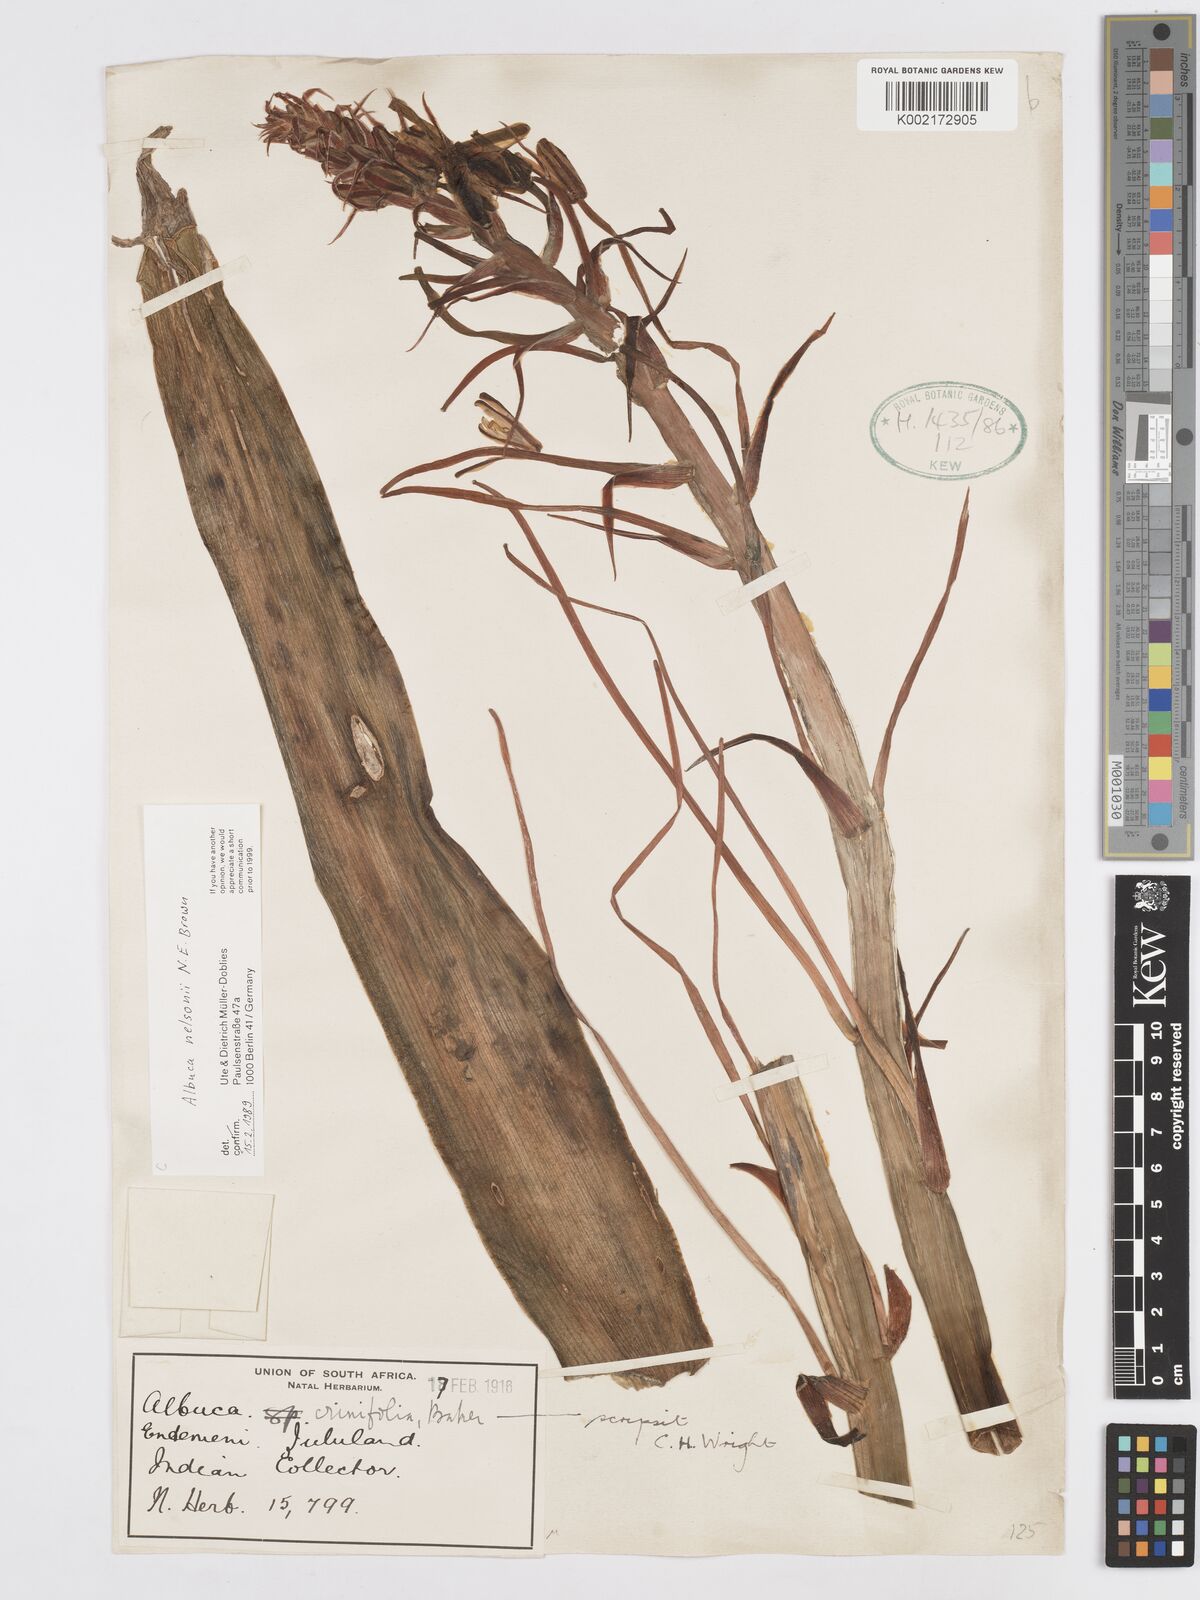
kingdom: Plantae
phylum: Tracheophyta
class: Liliopsida
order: Asparagales
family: Asparagaceae
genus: Albuca
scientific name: Albuca nelsonii
